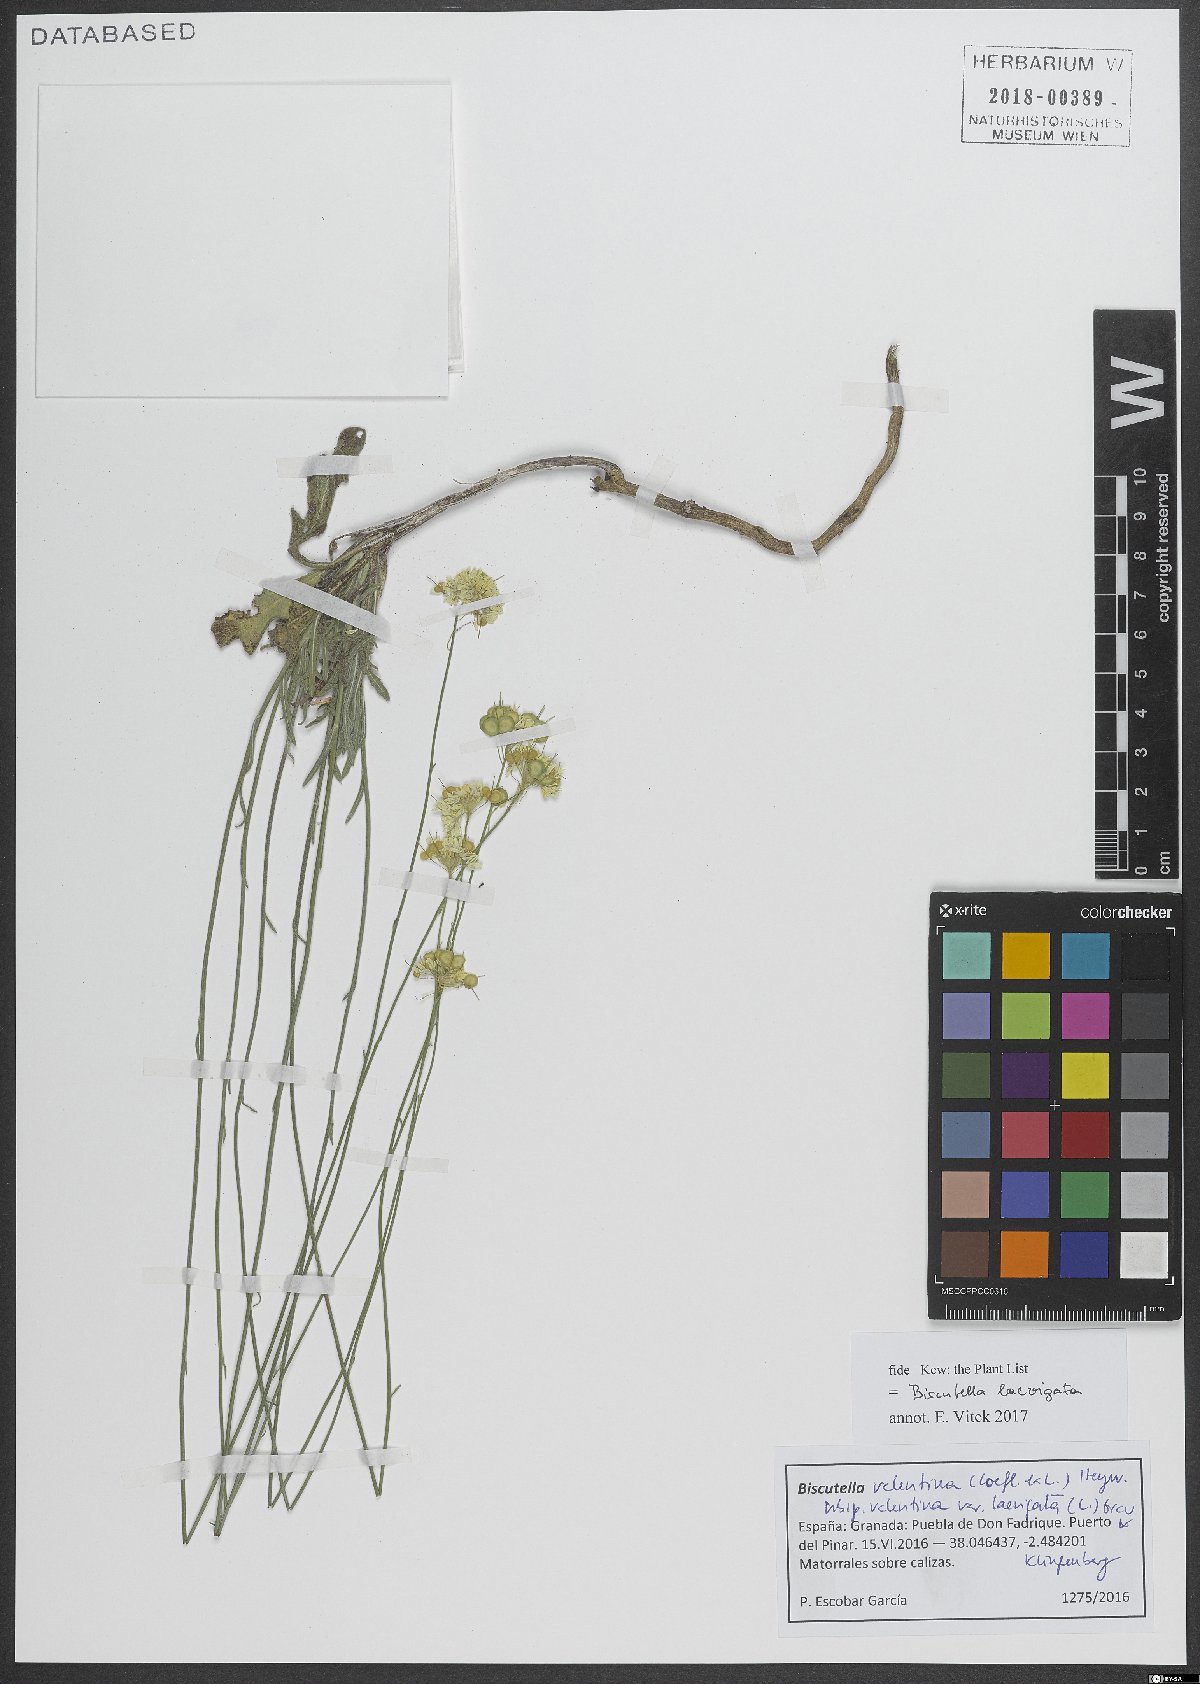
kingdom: Plantae
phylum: Tracheophyta
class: Magnoliopsida
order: Brassicales
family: Brassicaceae
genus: Biscutella
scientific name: Biscutella laevigata
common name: Buckler mustard
